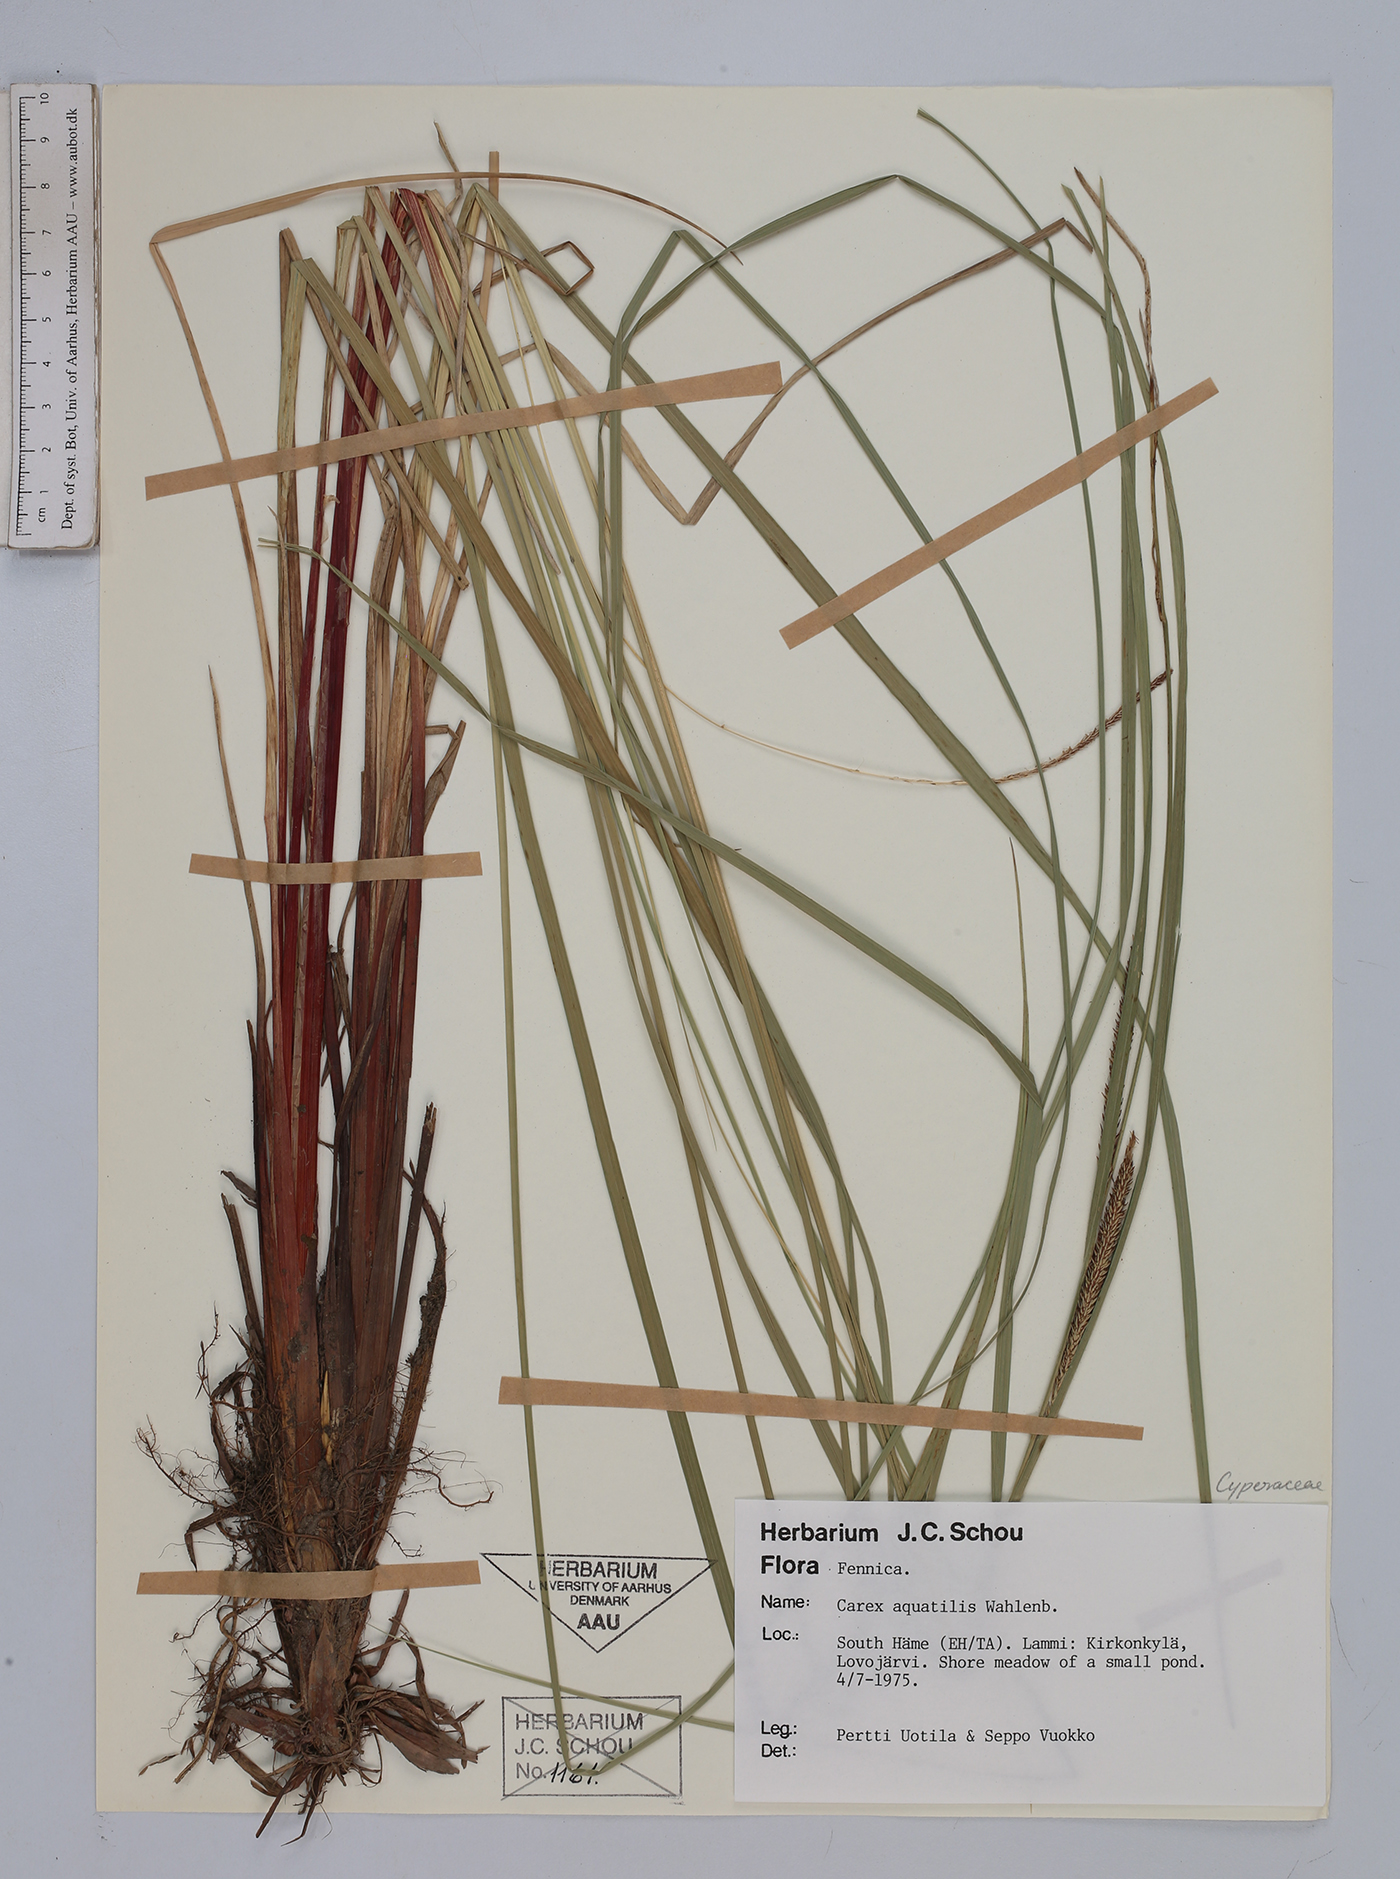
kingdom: Plantae
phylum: Tracheophyta
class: Liliopsida
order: Poales
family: Cyperaceae
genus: Carex
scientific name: Carex aquatilis
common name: Water sedge
